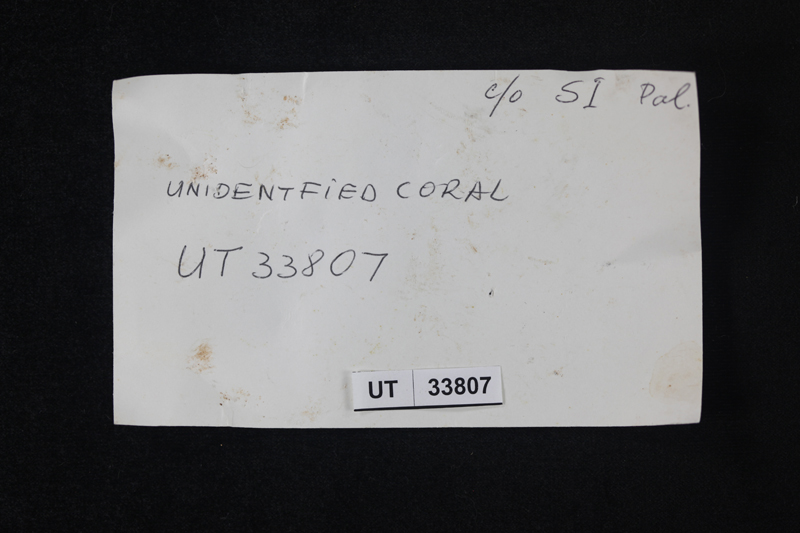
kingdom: Animalia
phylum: Cnidaria
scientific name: Cnidaria
